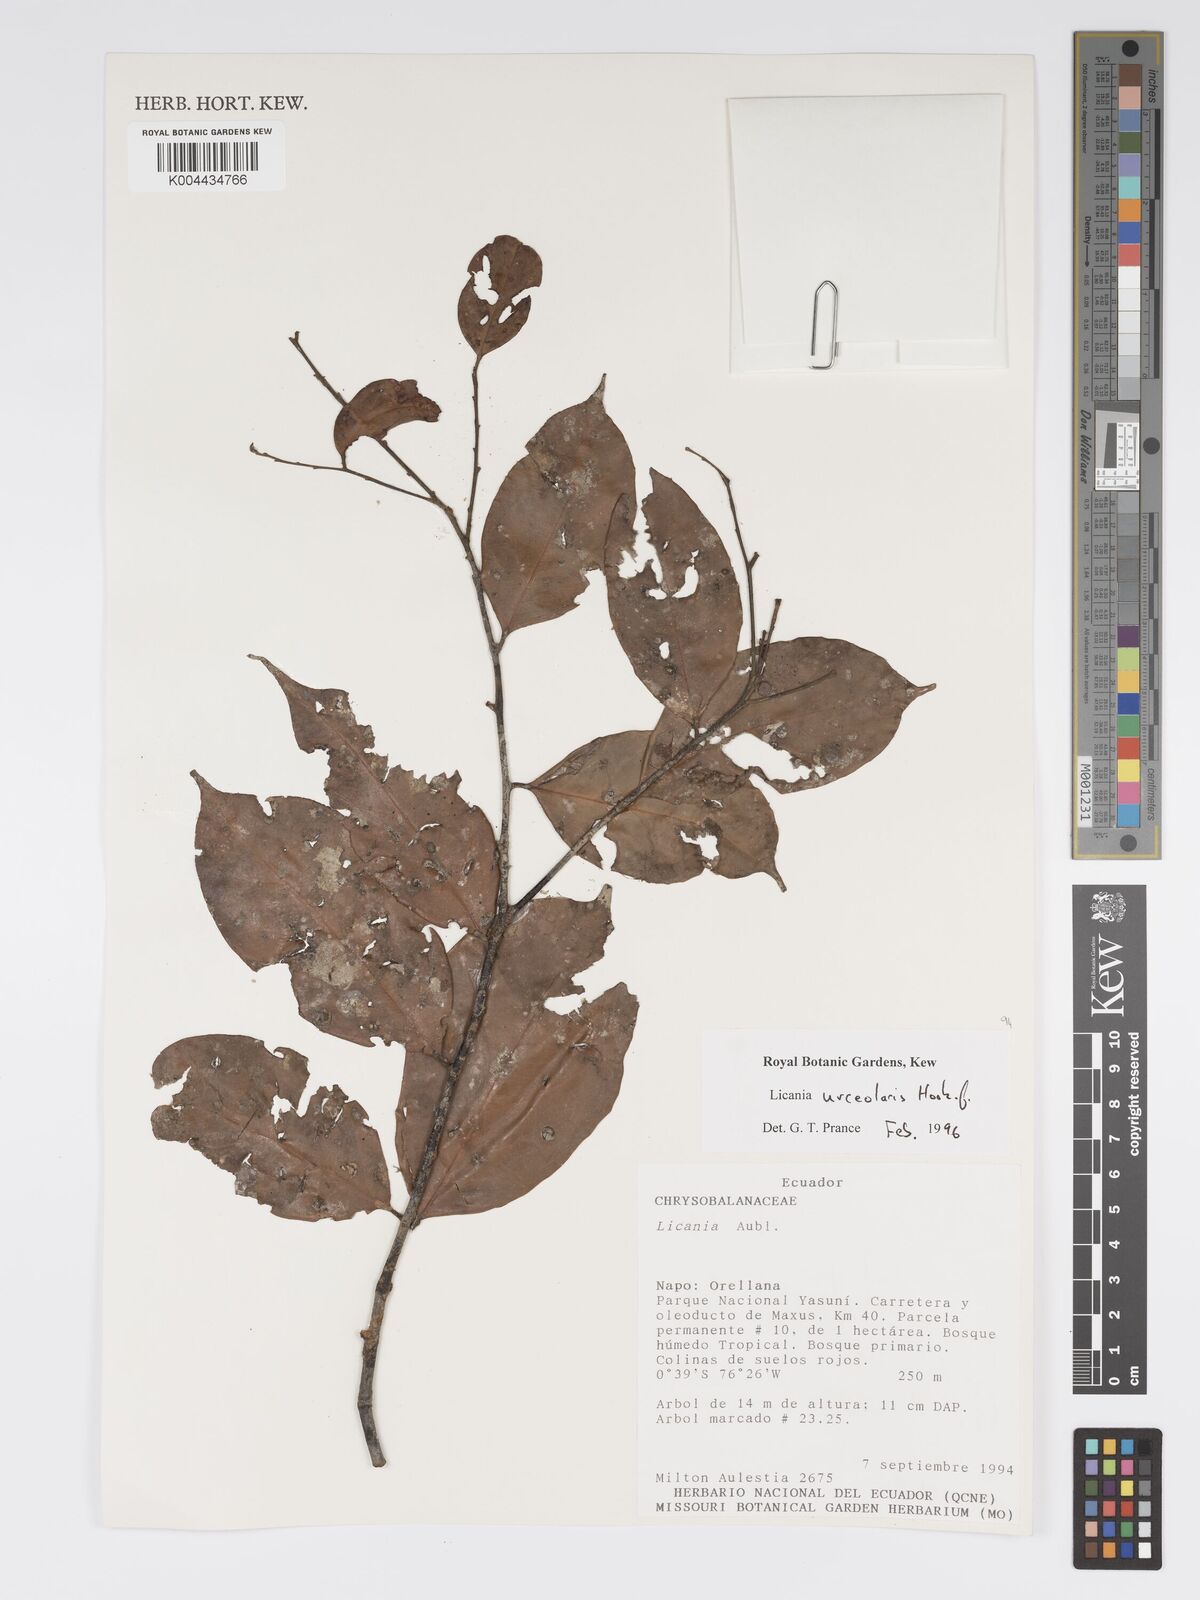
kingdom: Plantae
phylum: Tracheophyta
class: Magnoliopsida
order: Malpighiales
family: Chrysobalanaceae
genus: Licania
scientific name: Licania urceolaris
